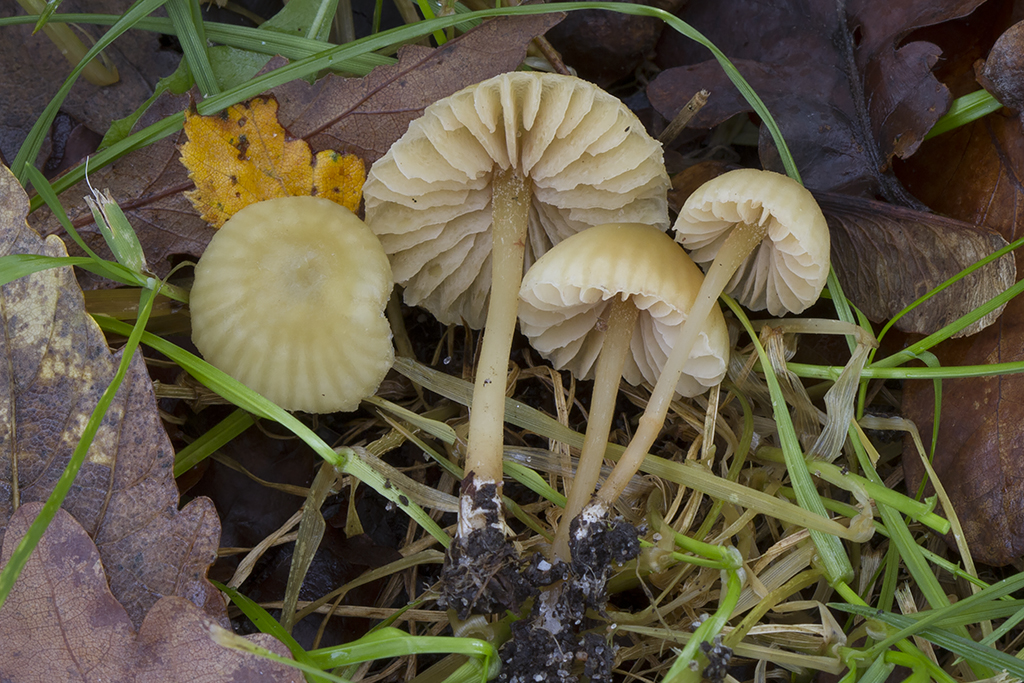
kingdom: Fungi
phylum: Basidiomycota
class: Agaricomycetes
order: Agaricales
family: Entolomataceae
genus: Entoloma
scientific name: Entoloma pleopodium
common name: duftende rødblad
